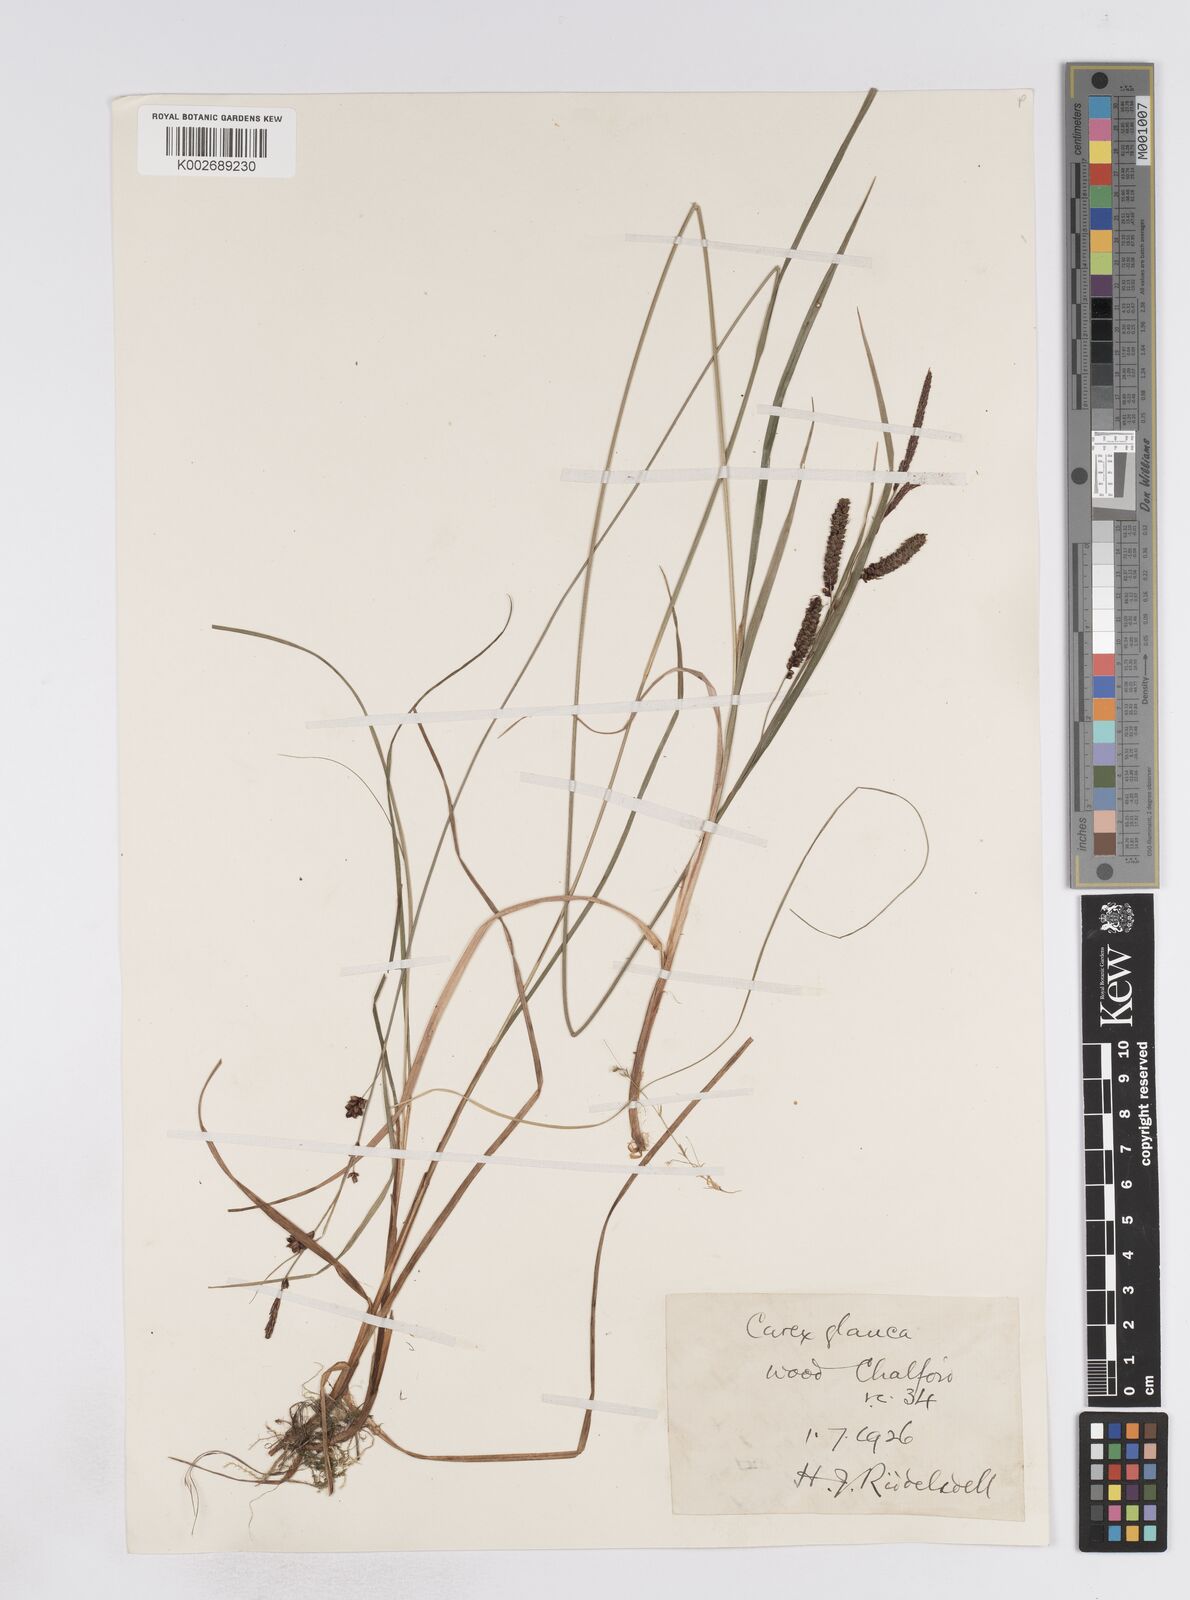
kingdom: Plantae
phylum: Tracheophyta
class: Liliopsida
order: Poales
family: Cyperaceae
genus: Carex
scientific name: Carex flacca
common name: Glaucous sedge
